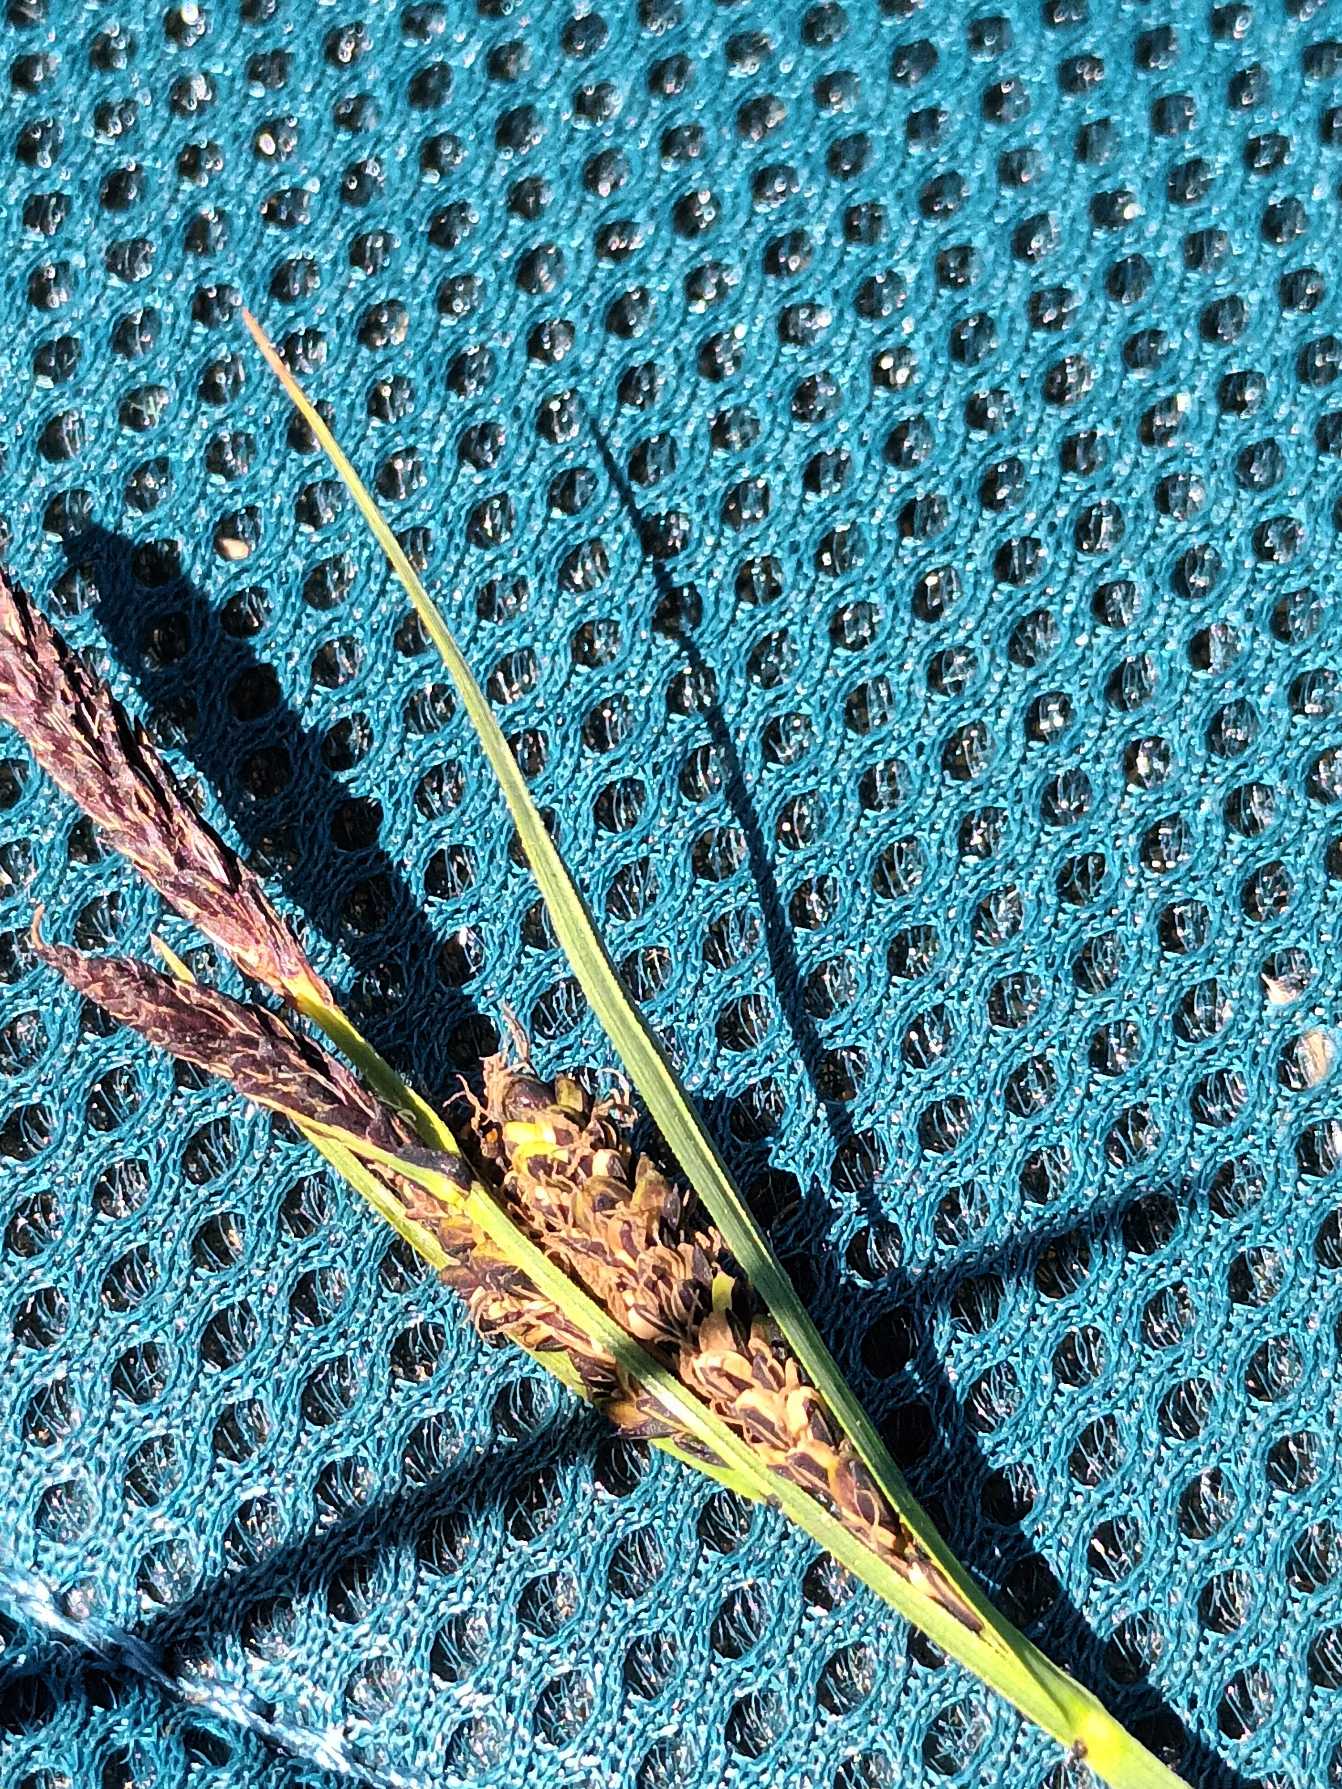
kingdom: Plantae
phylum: Tracheophyta
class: Liliopsida
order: Poales
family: Cyperaceae
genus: Carex
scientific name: Carex nigra
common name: Almindelig star
